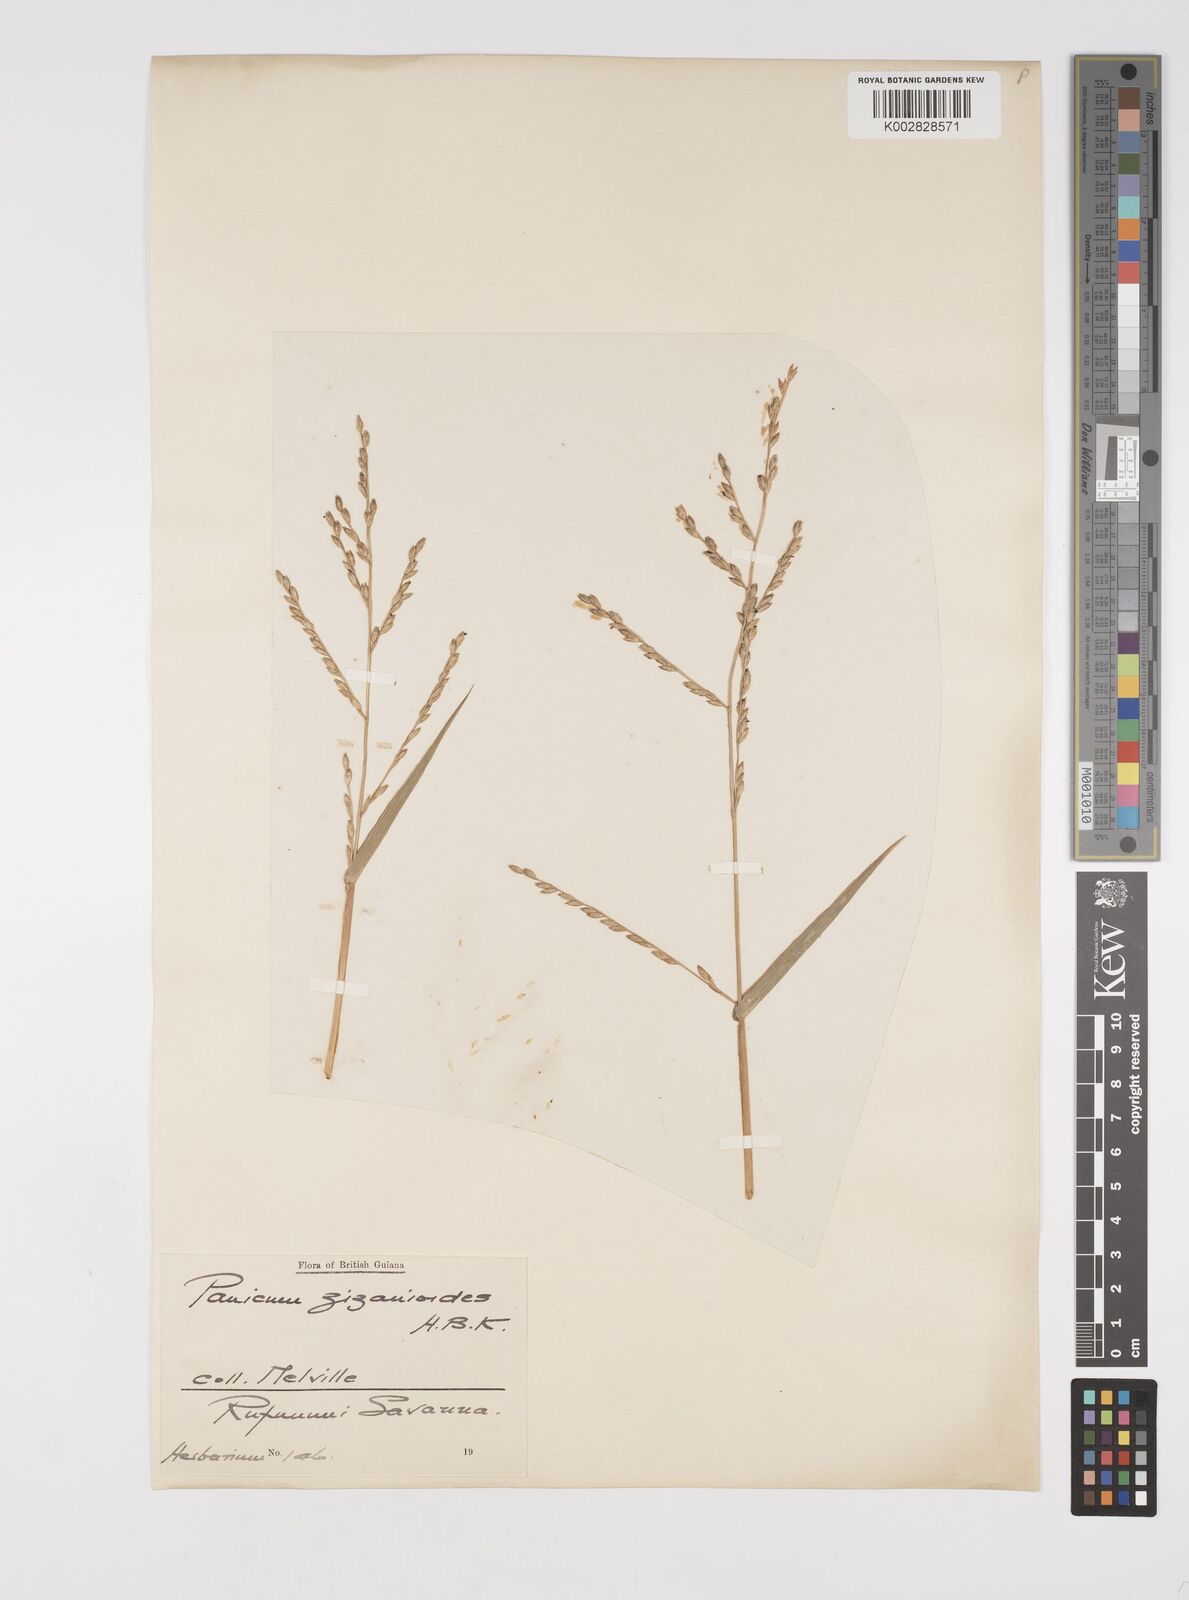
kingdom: Plantae
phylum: Tracheophyta
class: Liliopsida
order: Poales
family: Poaceae
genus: Acroceras
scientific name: Acroceras zizanioides
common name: Oat grass
